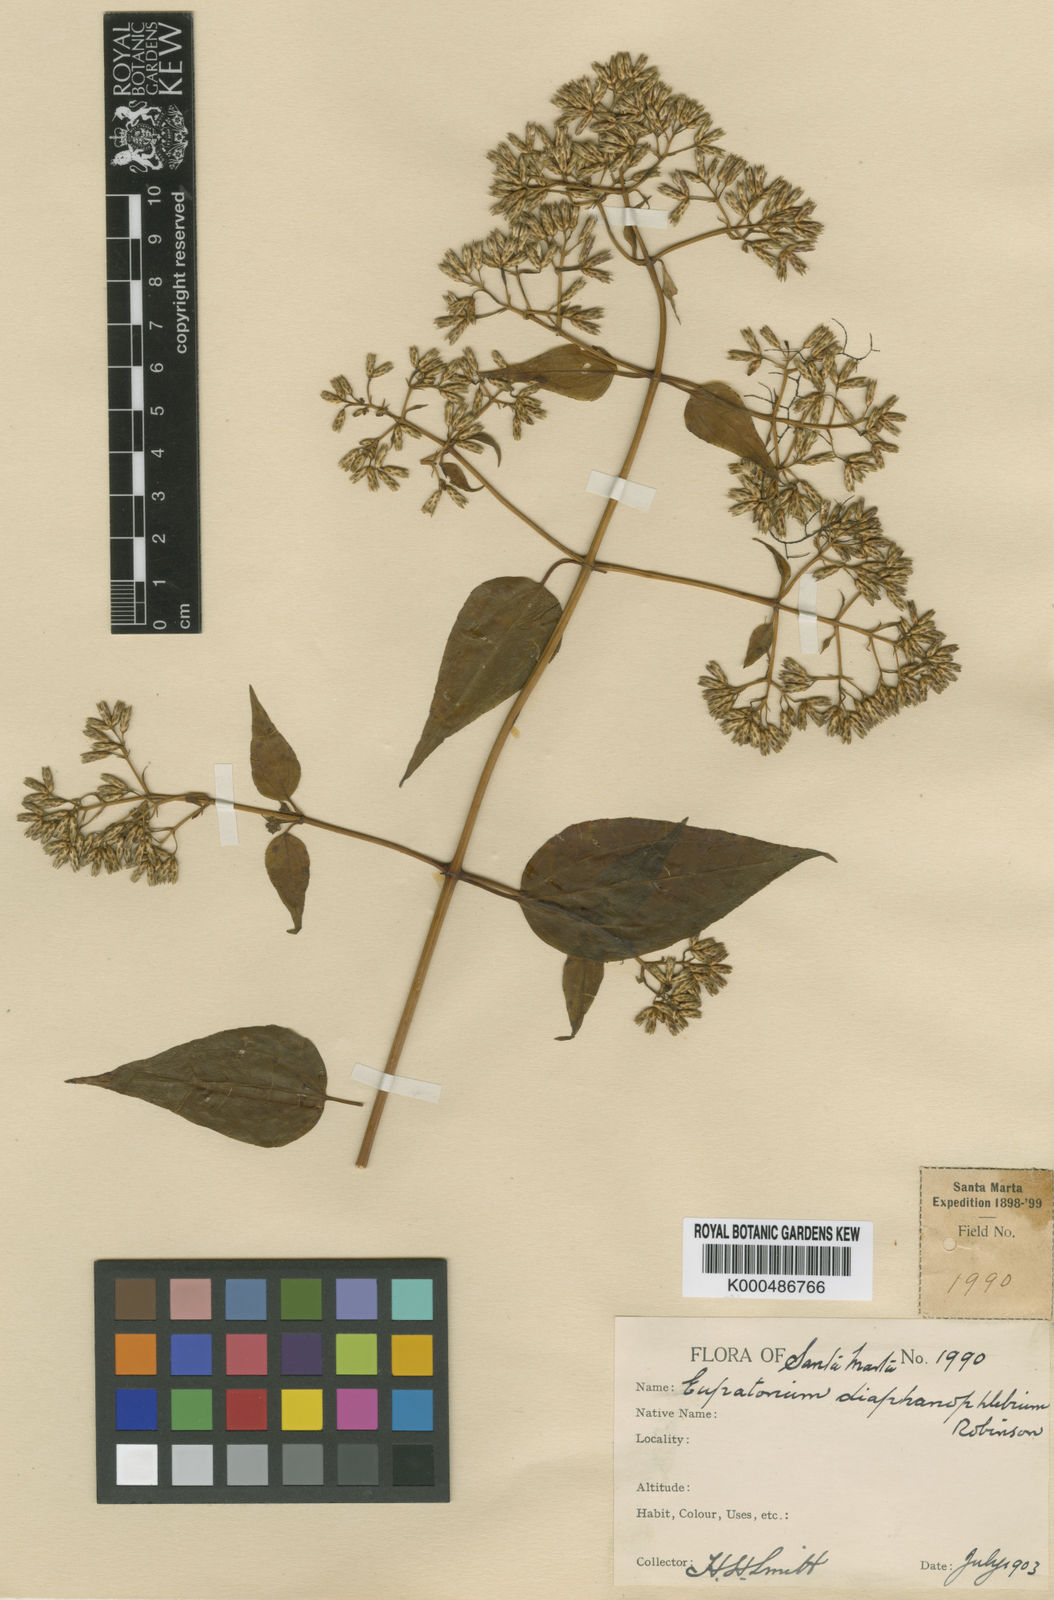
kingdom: Plantae
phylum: Tracheophyta
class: Magnoliopsida
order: Asterales
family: Asteraceae
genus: Chromolaena
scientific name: Chromolaena diaphanophlebia
